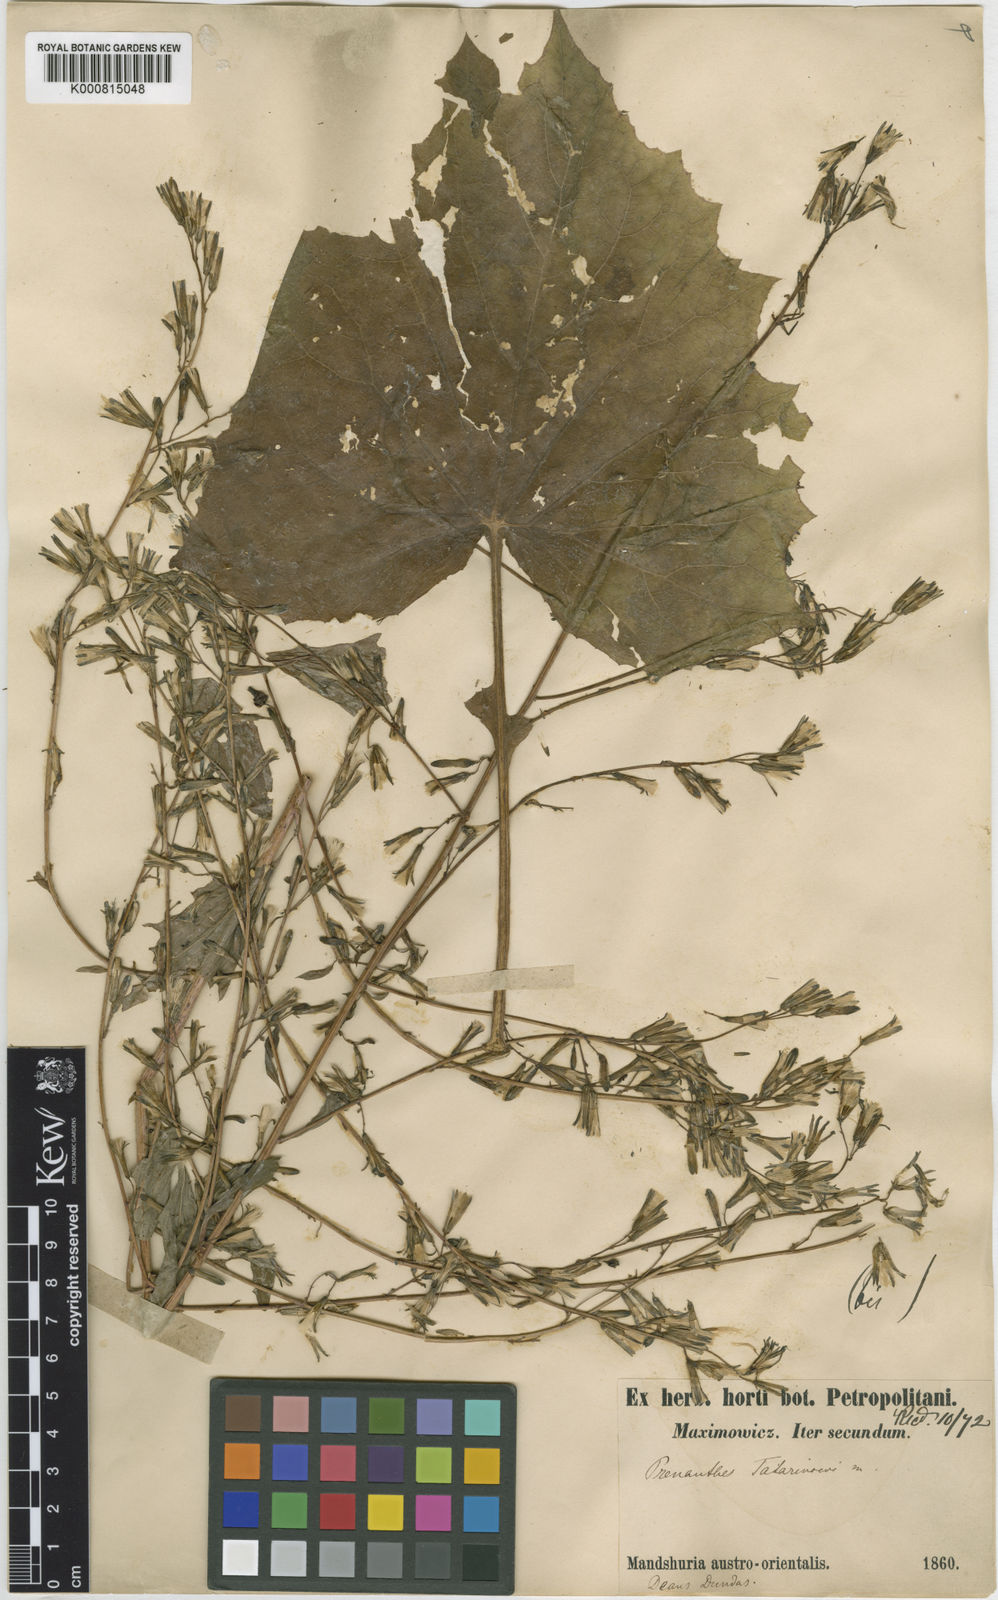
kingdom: Plantae
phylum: Tracheophyta
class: Magnoliopsida
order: Asterales
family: Asteraceae
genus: Nabalus
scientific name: Nabalus tatarinowii
